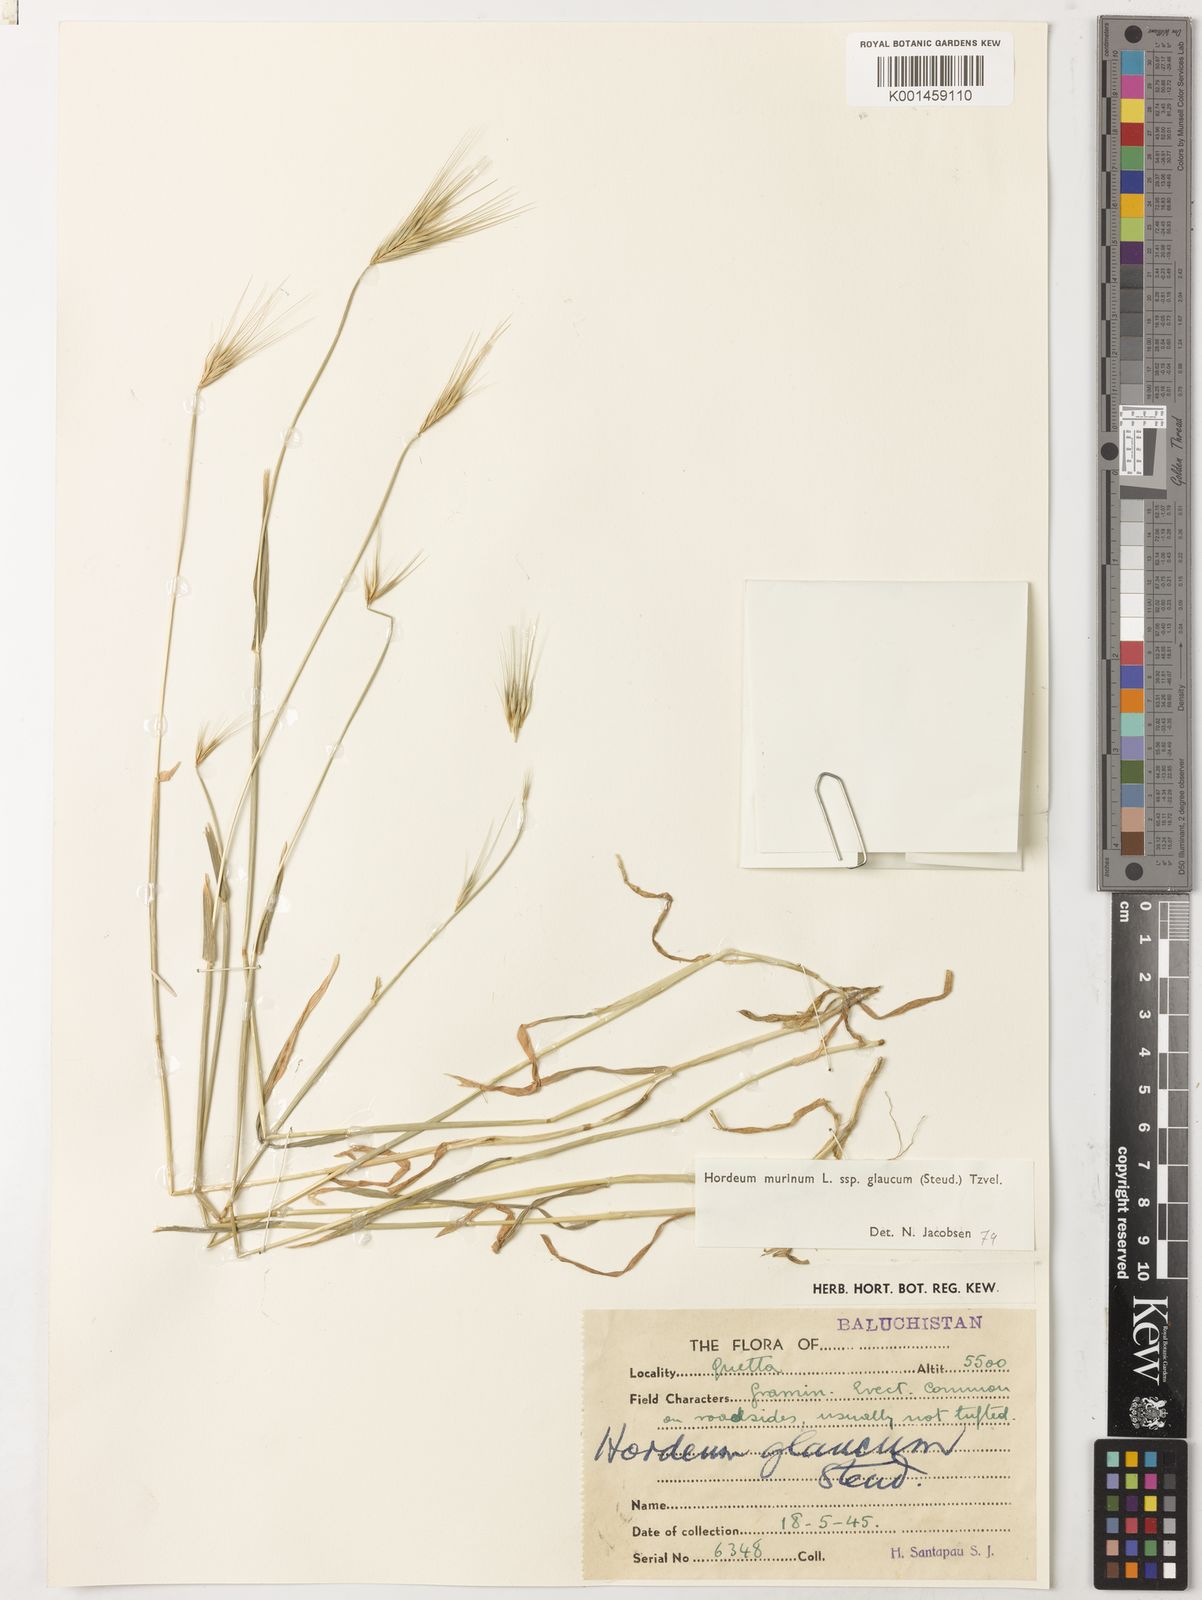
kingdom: Plantae
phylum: Tracheophyta
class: Liliopsida
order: Poales
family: Poaceae
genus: Hordeum
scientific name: Hordeum murinum
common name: Wall barley
